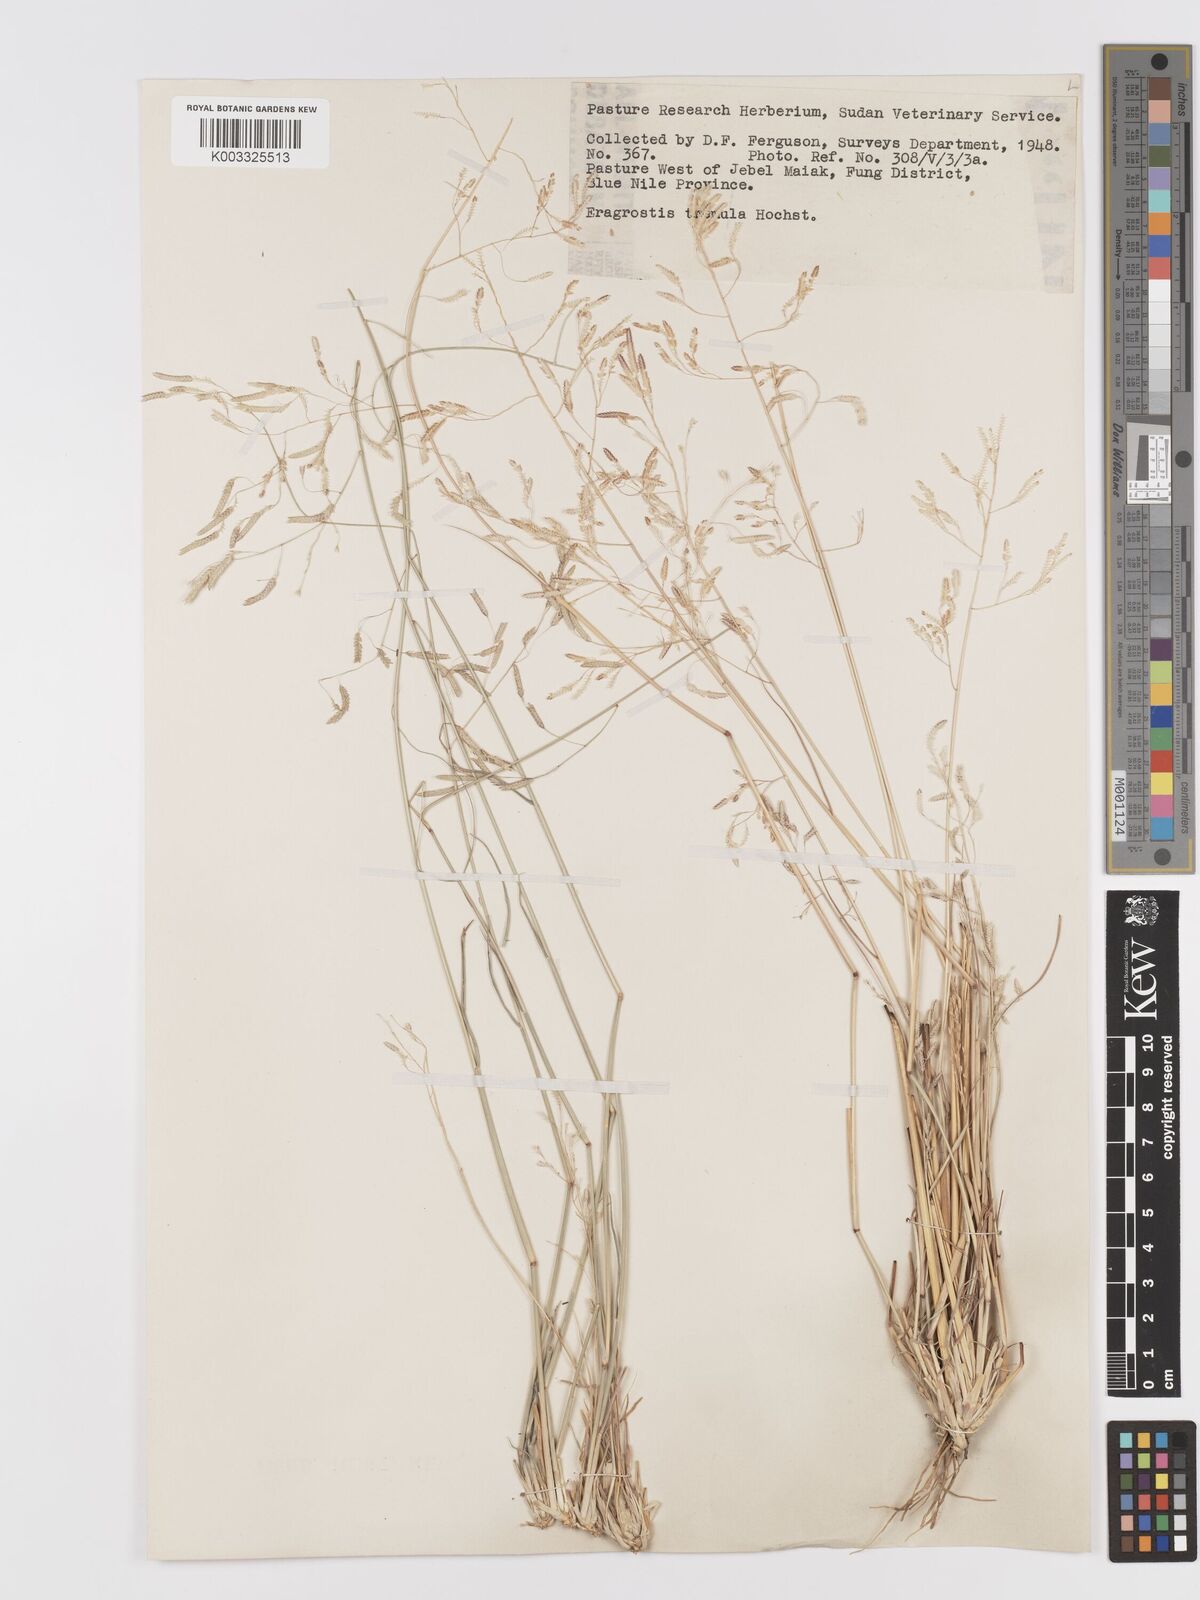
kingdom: Plantae
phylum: Tracheophyta
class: Liliopsida
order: Poales
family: Poaceae
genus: Eragrostis
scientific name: Eragrostis tremula
